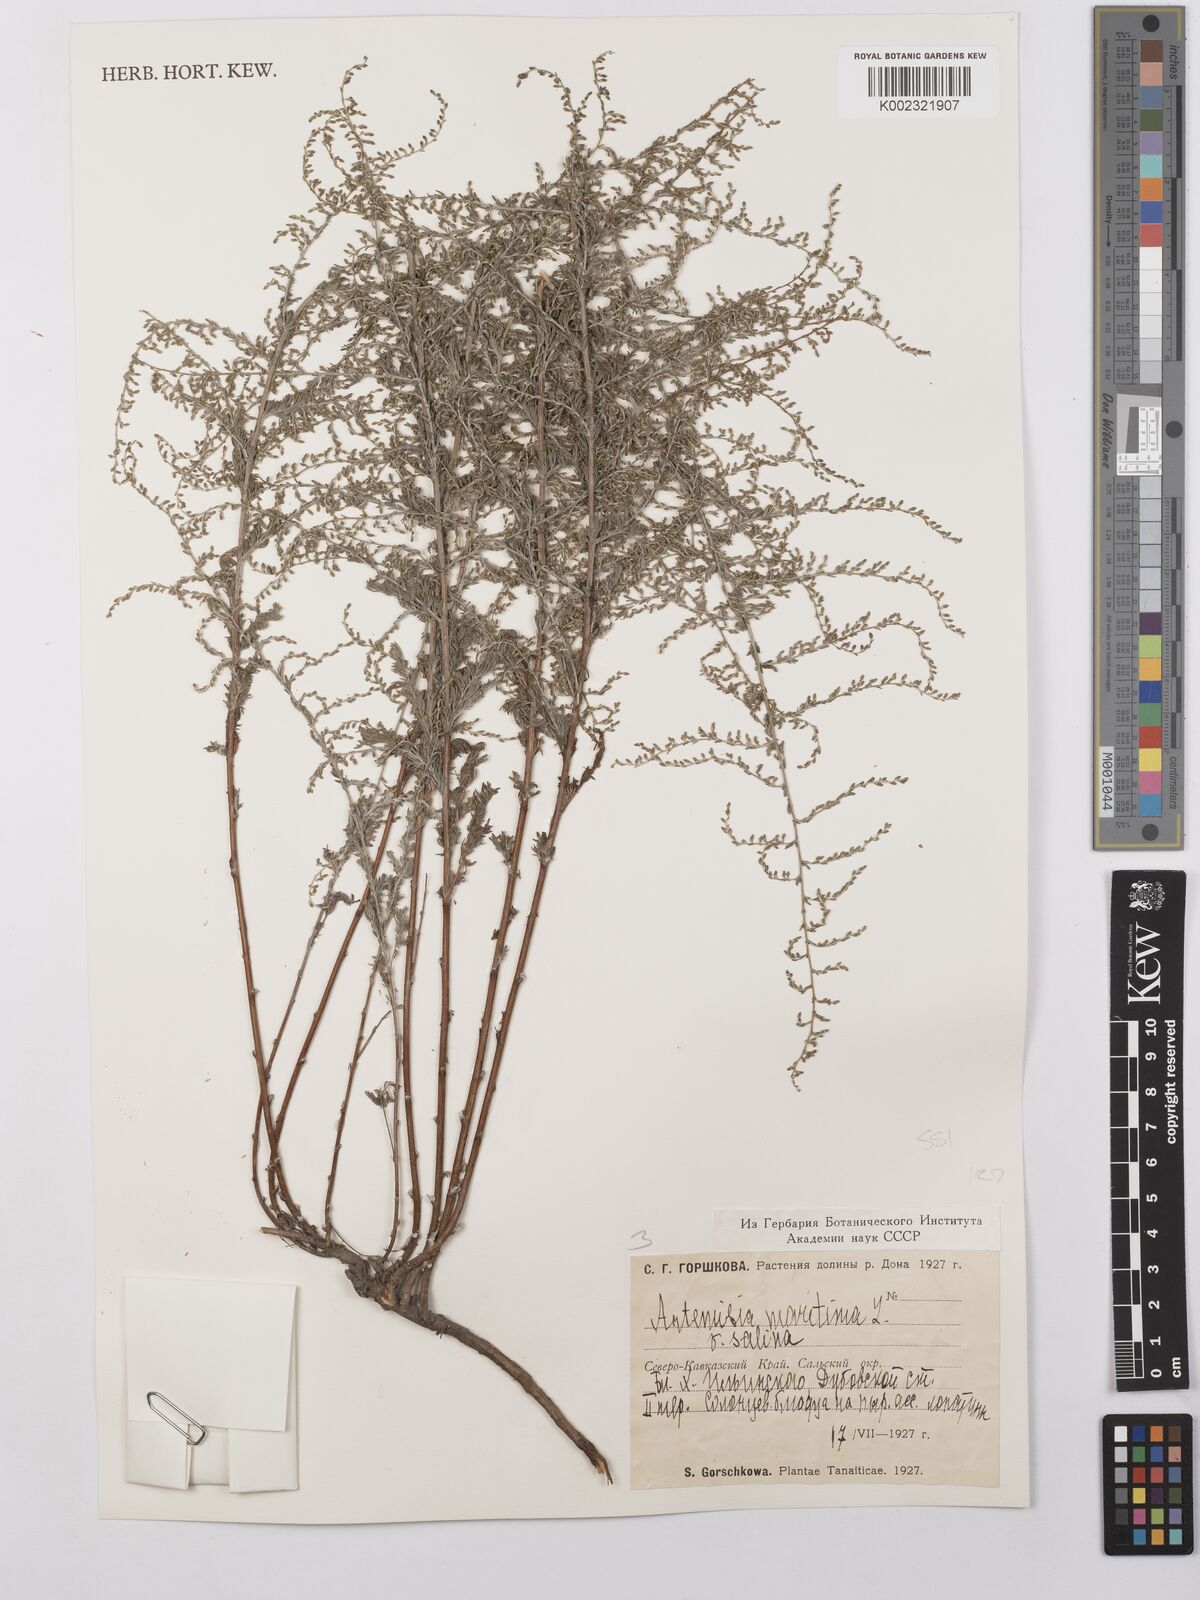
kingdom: Plantae
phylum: Tracheophyta
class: Magnoliopsida
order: Asterales
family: Asteraceae
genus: Artemisia
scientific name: Artemisia tianschanica
